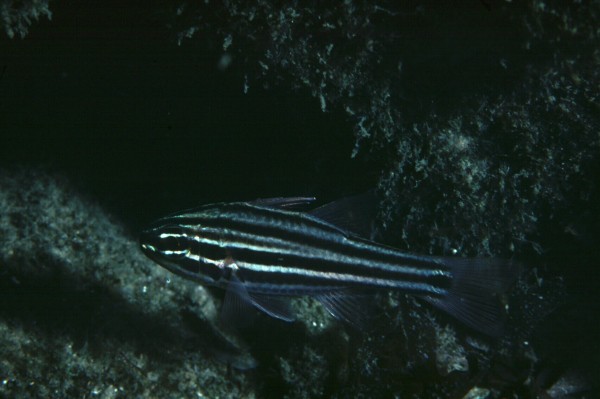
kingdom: Animalia
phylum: Chordata
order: Perciformes
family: Apogonidae
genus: Ostorhinchus
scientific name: Ostorhinchus taeniophorus
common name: Reef-flat cardinalfish
